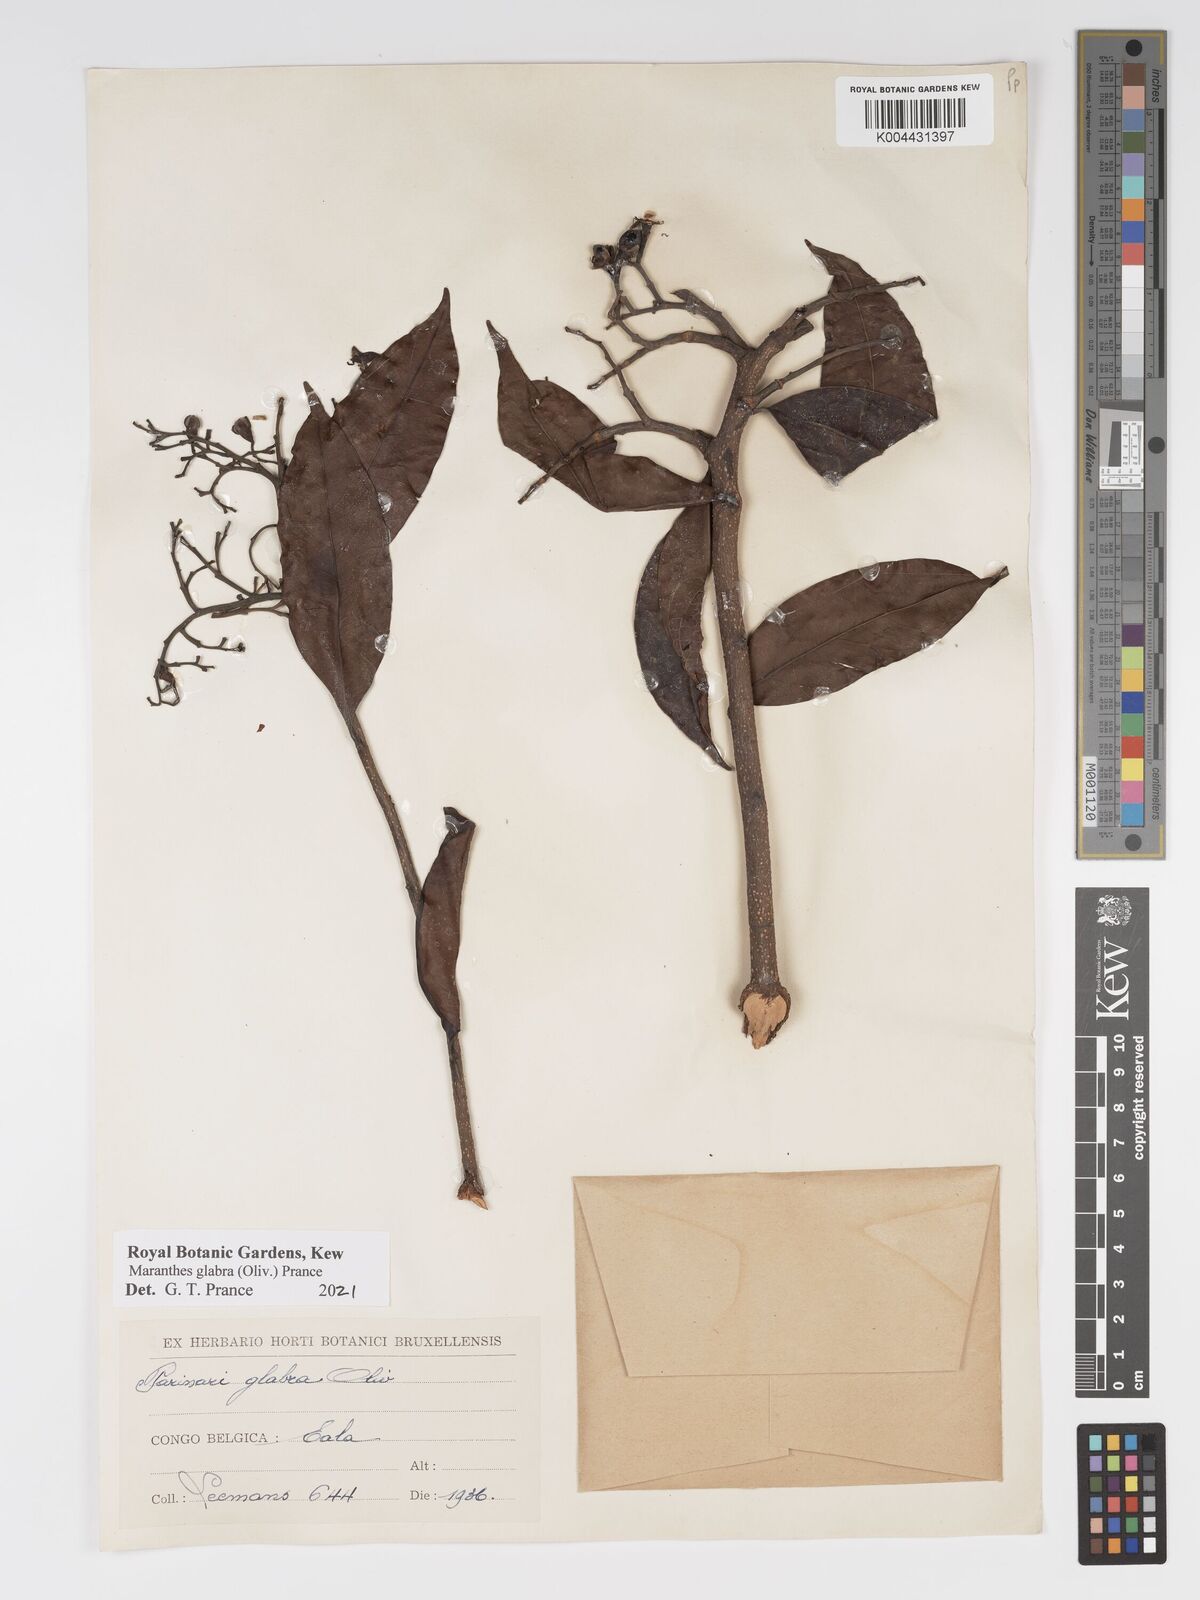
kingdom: Plantae
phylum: Tracheophyta
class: Magnoliopsida
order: Malpighiales
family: Chrysobalanaceae
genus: Maranthes
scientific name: Maranthes glabra
